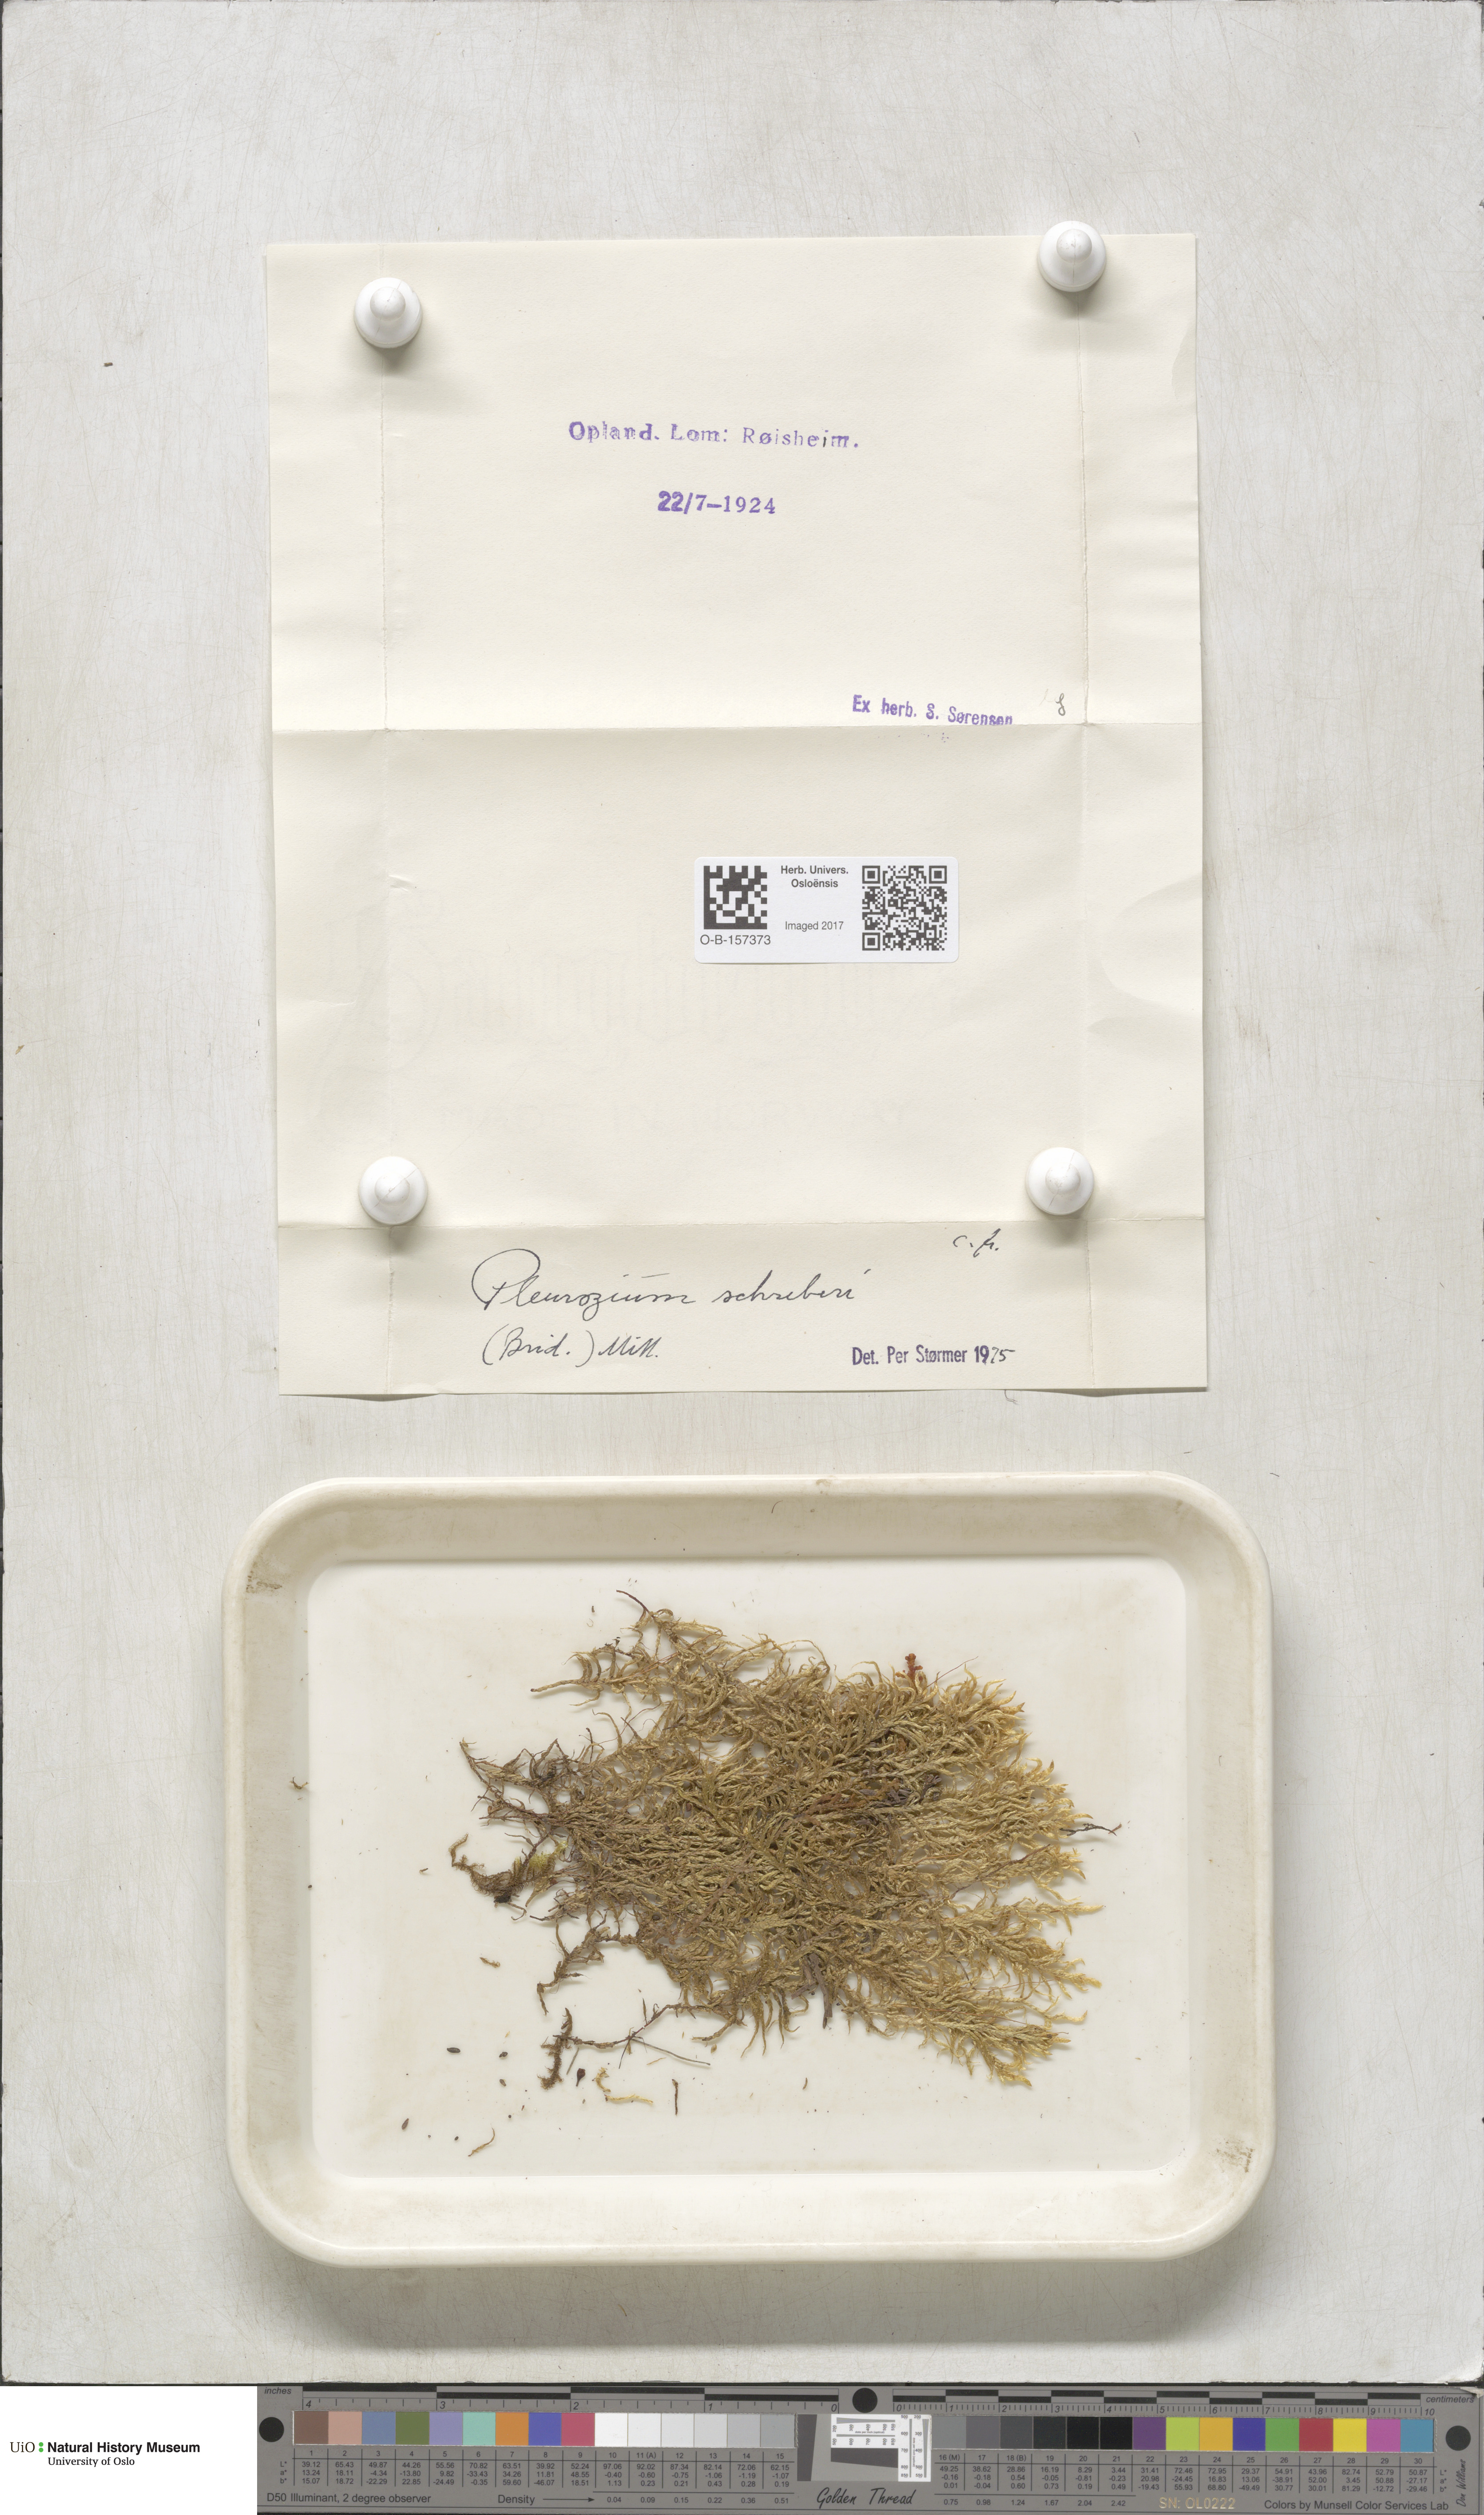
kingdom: Plantae
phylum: Bryophyta
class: Bryopsida
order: Hypnales
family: Hylocomiaceae
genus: Pleurozium
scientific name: Pleurozium schreberi
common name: Red-stemmed feather moss
